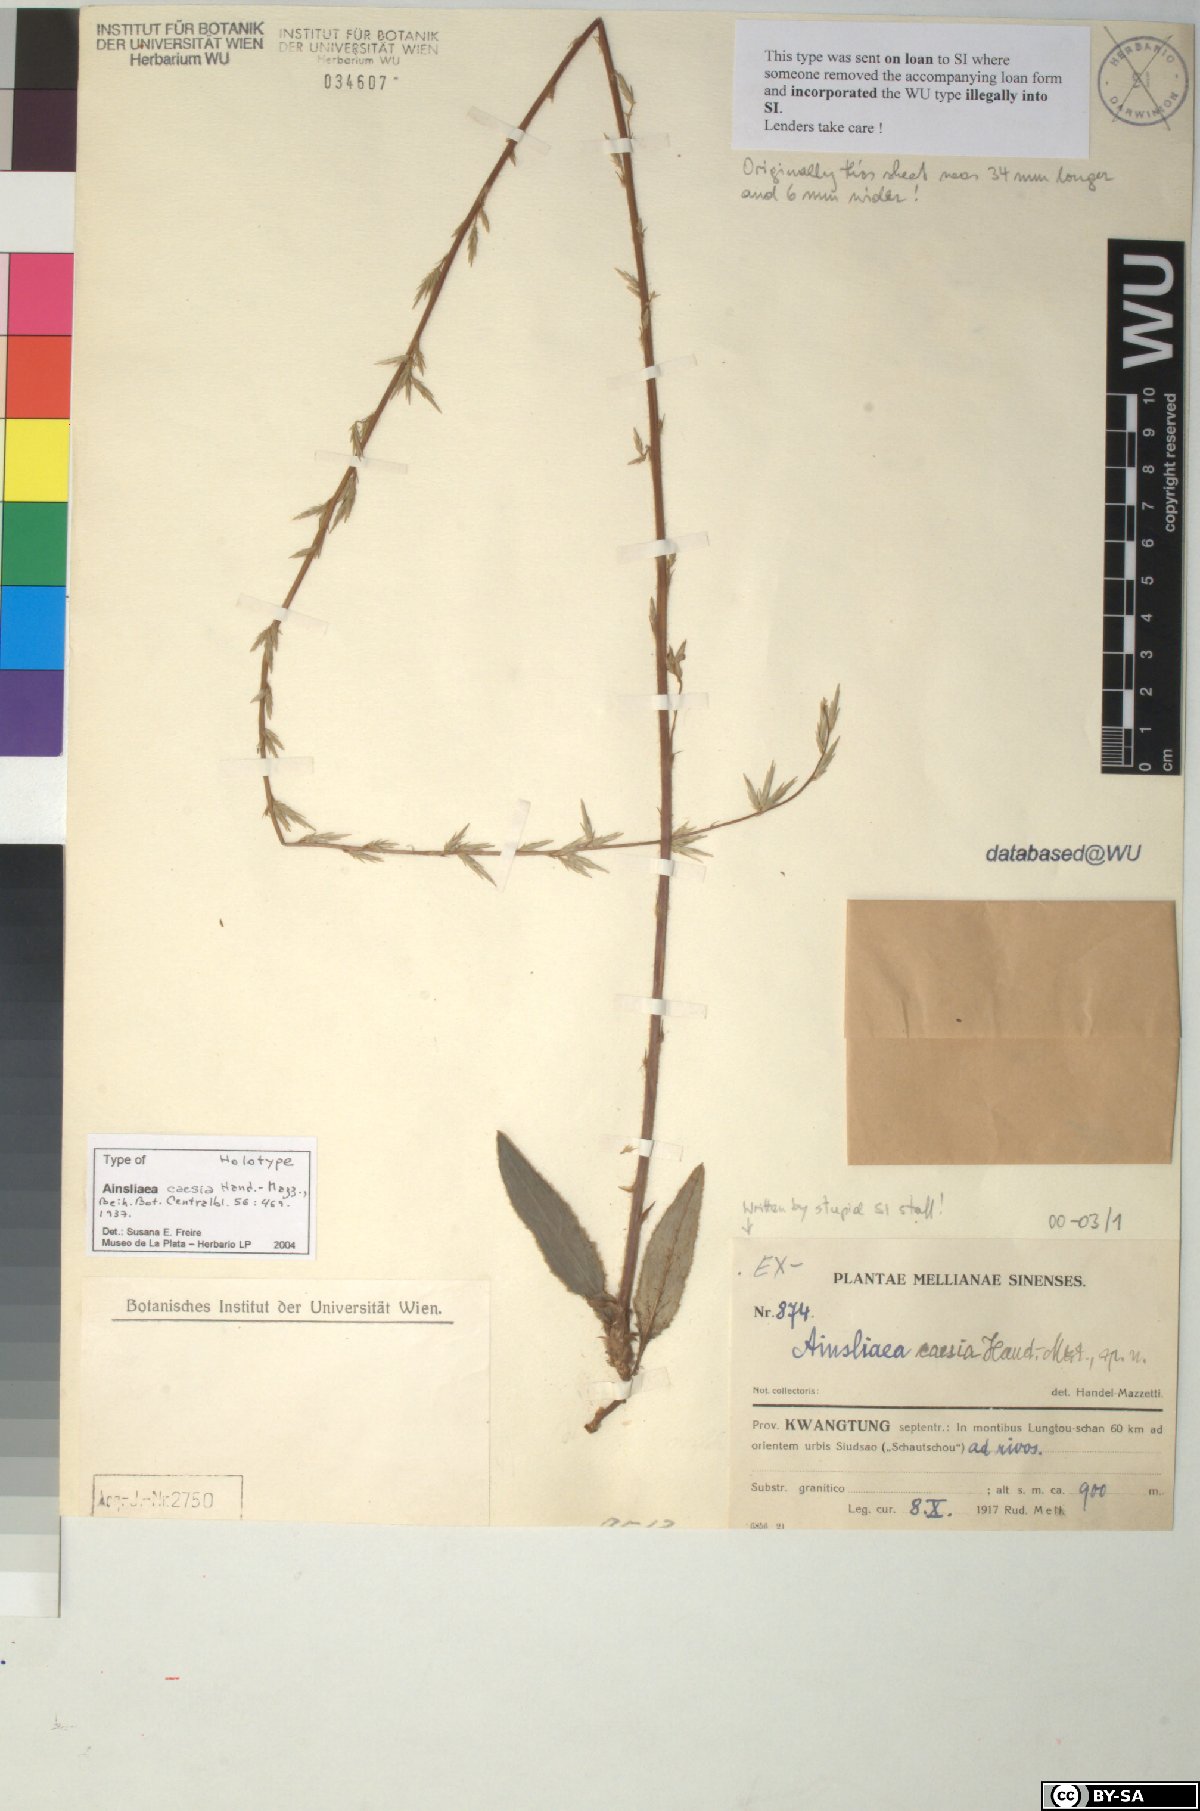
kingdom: Plantae
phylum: Tracheophyta
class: Magnoliopsida
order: Asterales
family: Asteraceae
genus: Ainsliaea
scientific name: Ainsliaea caesia
